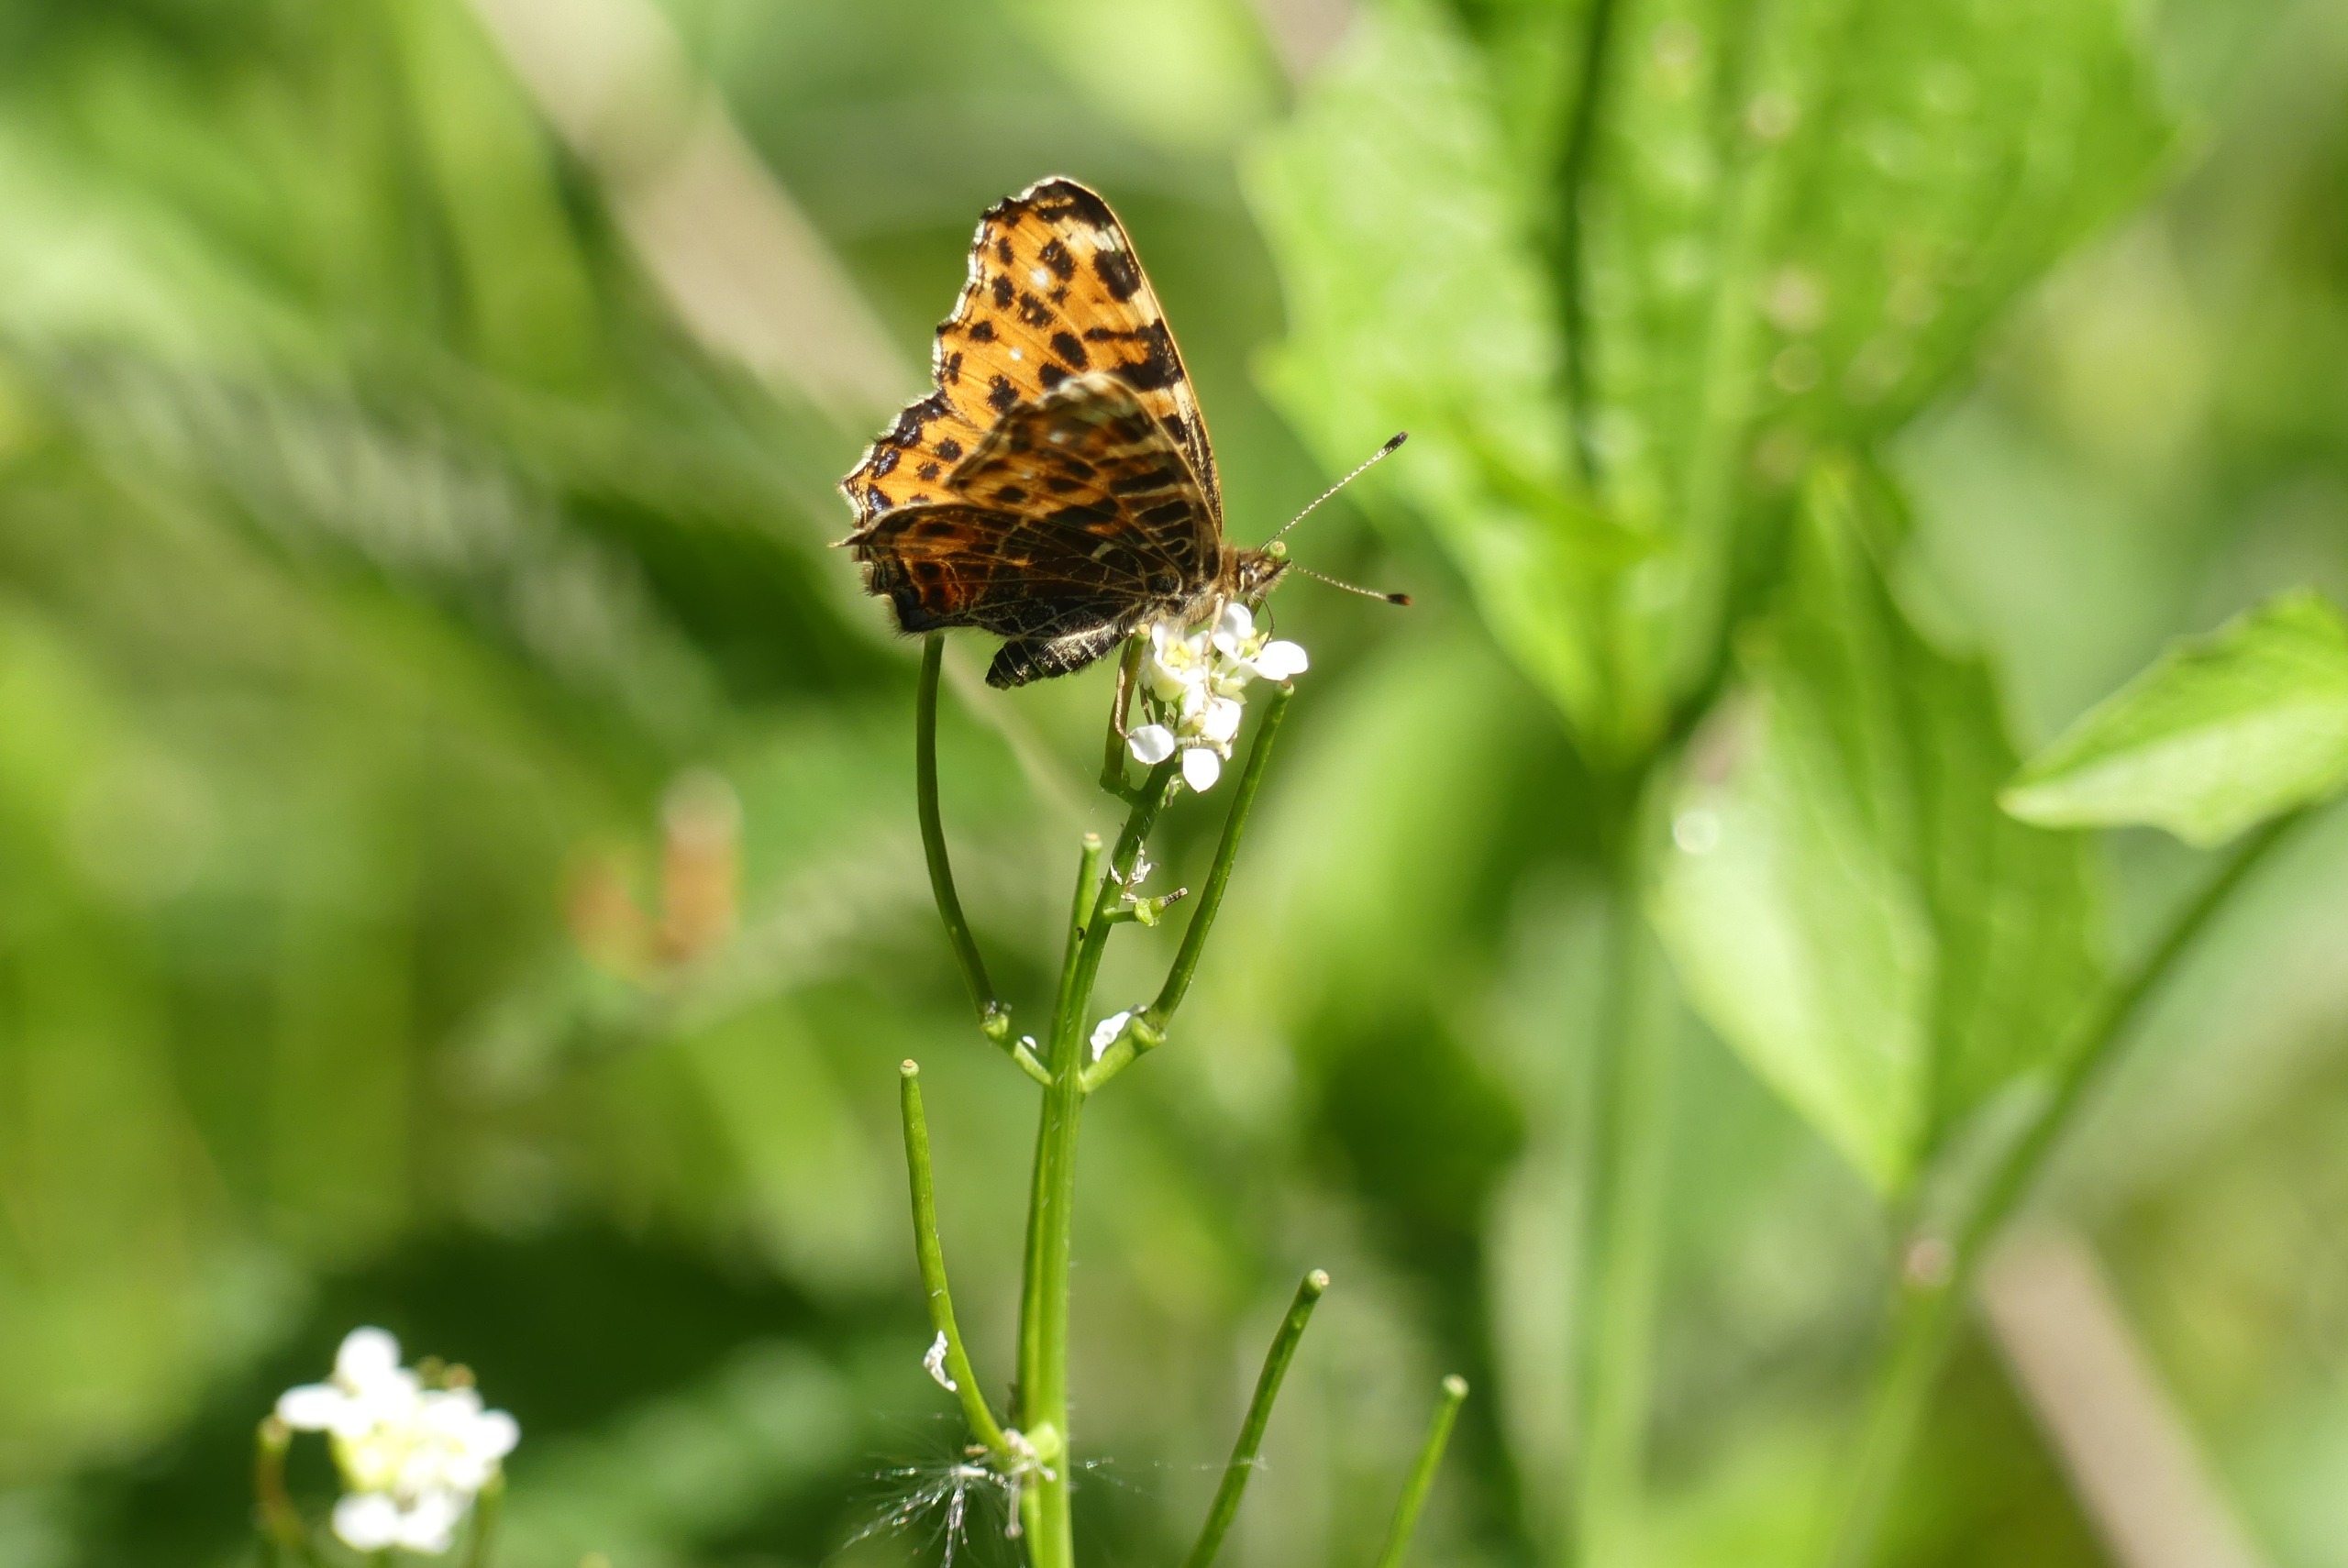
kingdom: Animalia
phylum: Arthropoda
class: Insecta
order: Lepidoptera
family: Nymphalidae
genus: Araschnia
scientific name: Araschnia levana
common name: Nældesommerfugl
